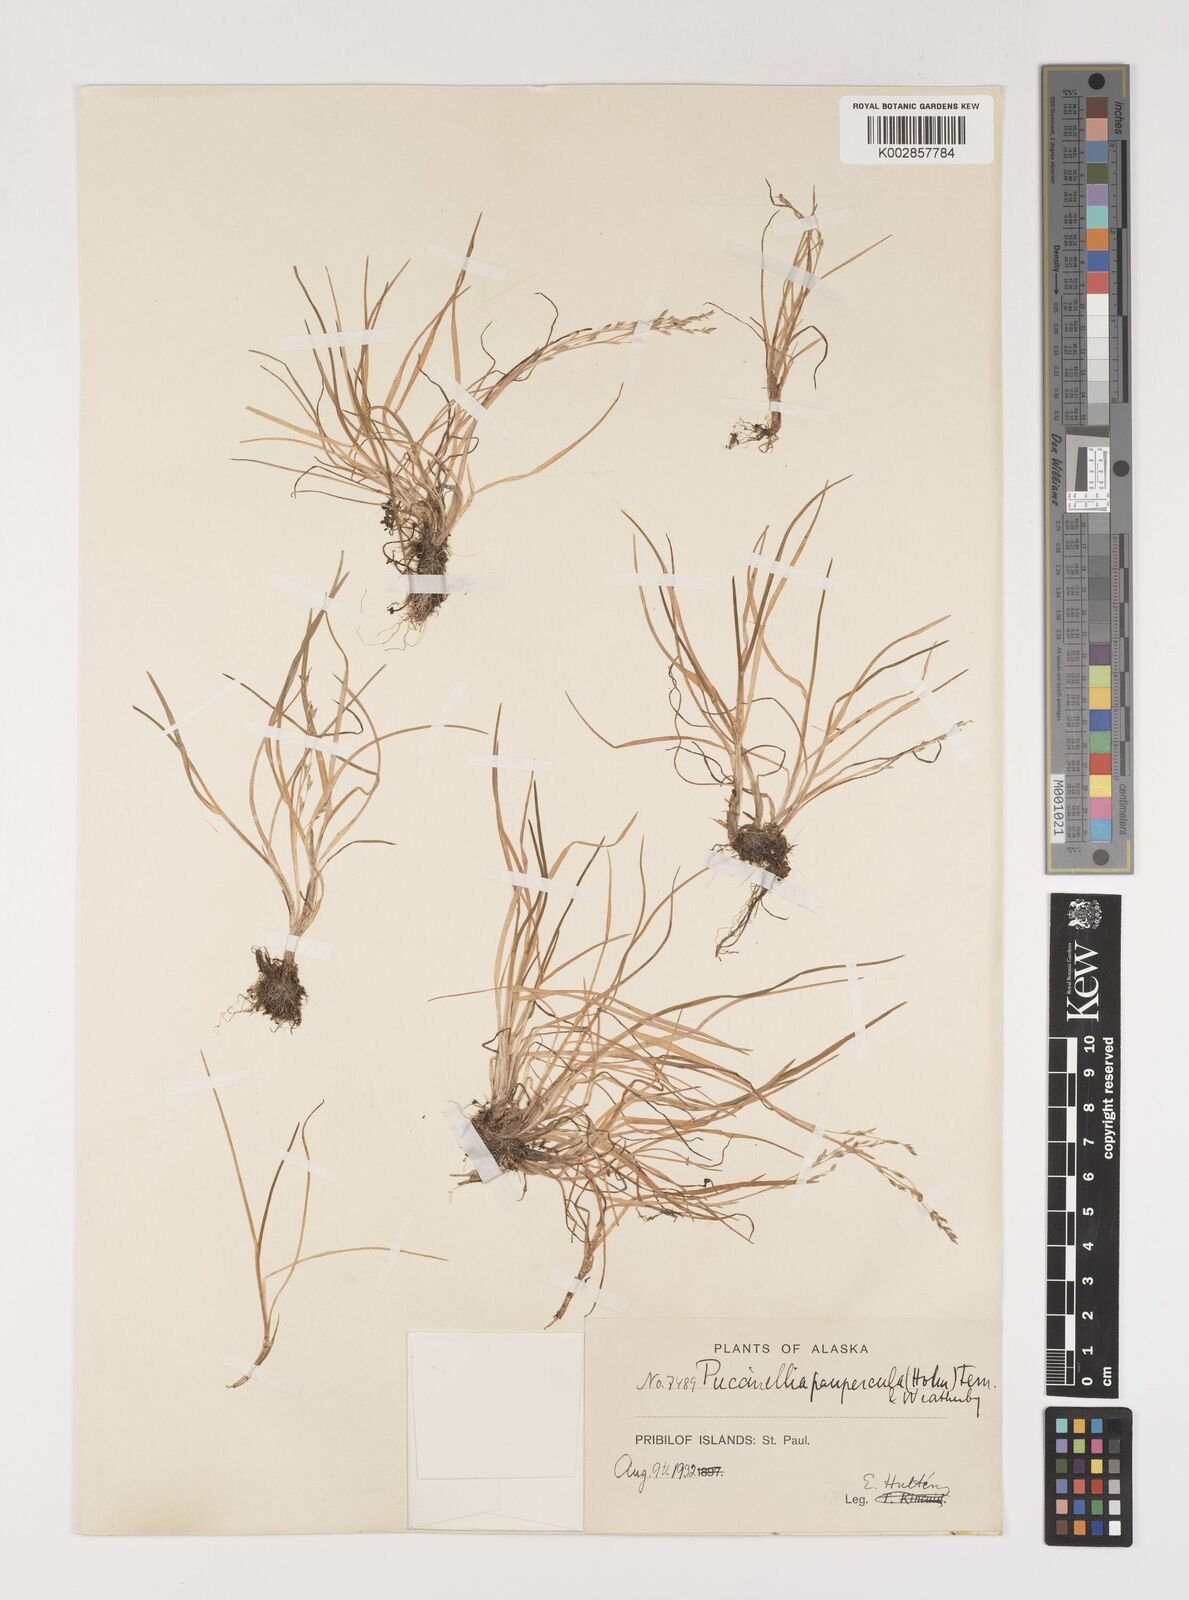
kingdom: Plantae
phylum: Tracheophyta
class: Liliopsida
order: Poales
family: Poaceae
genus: Puccinellia
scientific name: Puccinellia pumila
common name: Dwarf alkaligrass
